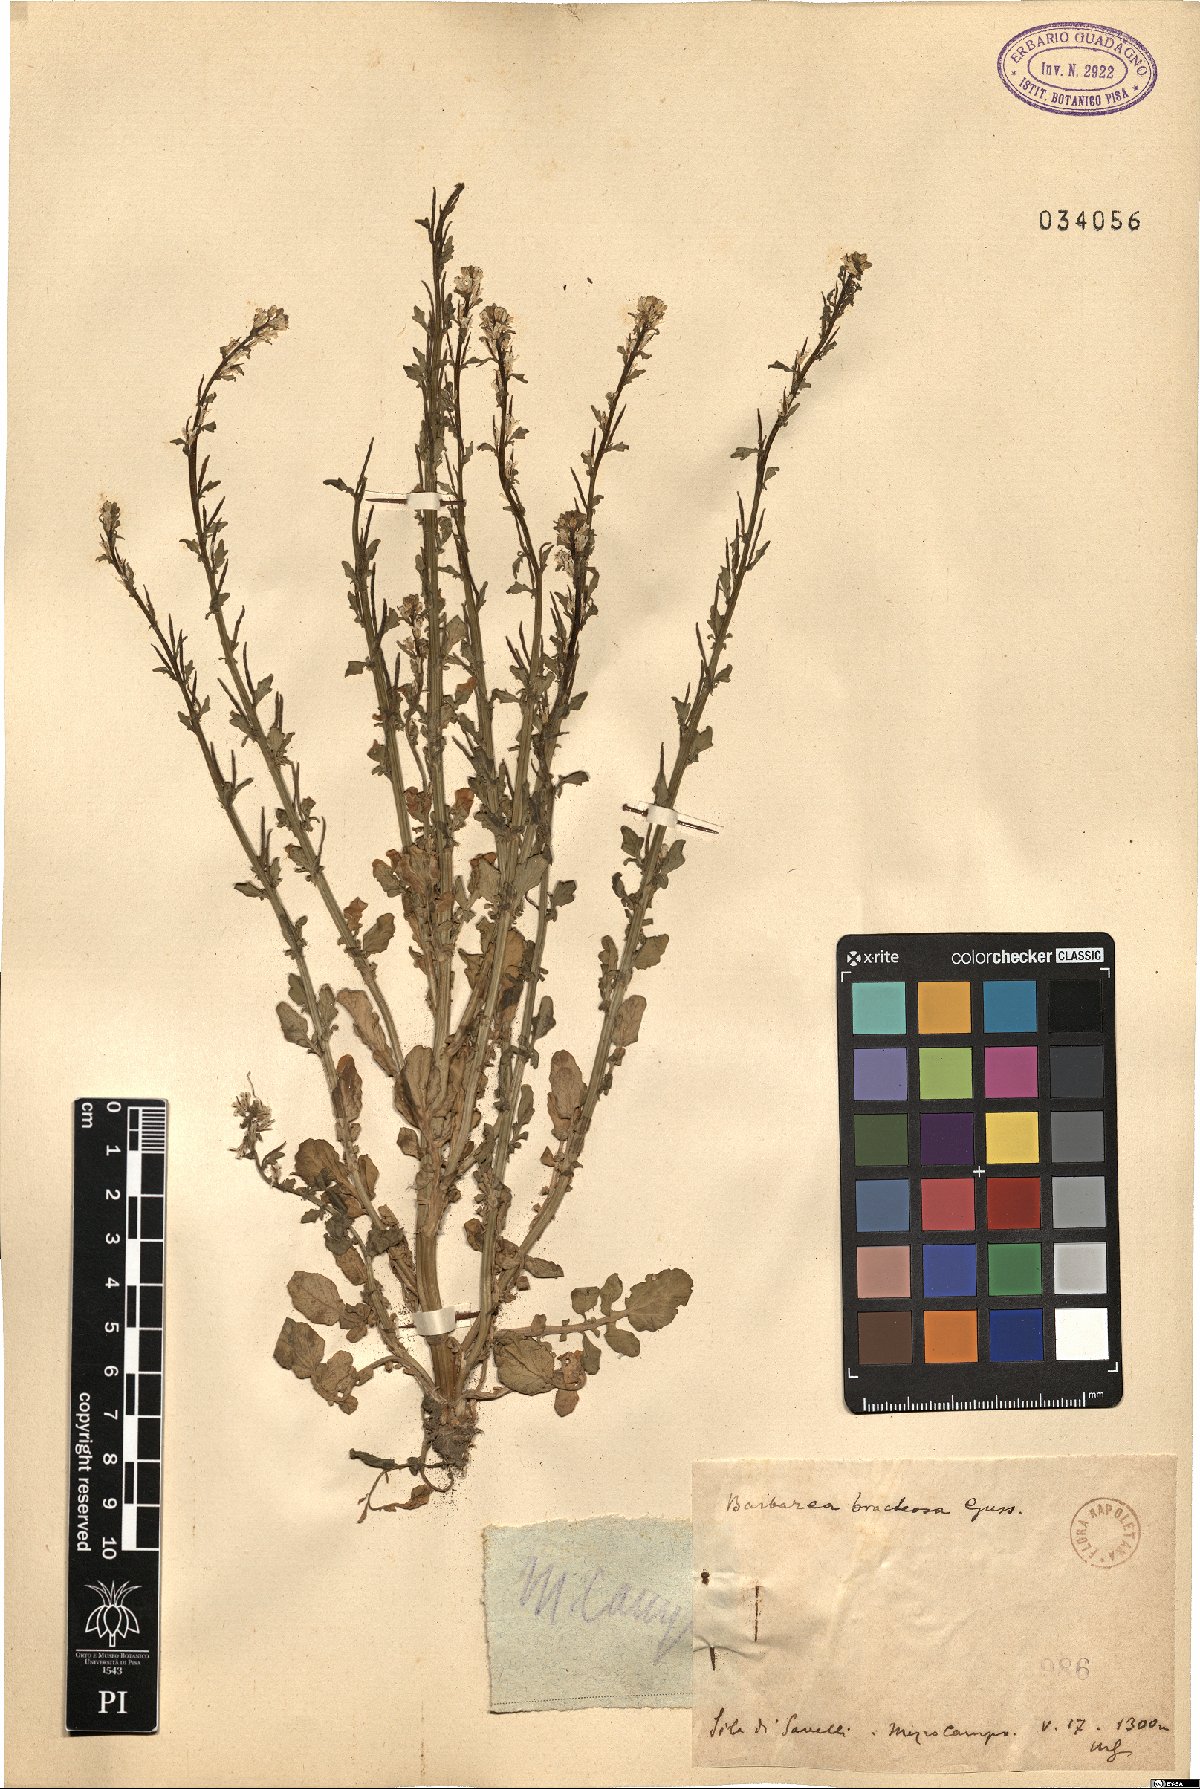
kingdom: Plantae
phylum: Tracheophyta
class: Magnoliopsida
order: Brassicales
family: Brassicaceae
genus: Barbarea
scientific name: Barbarea bracteosa
